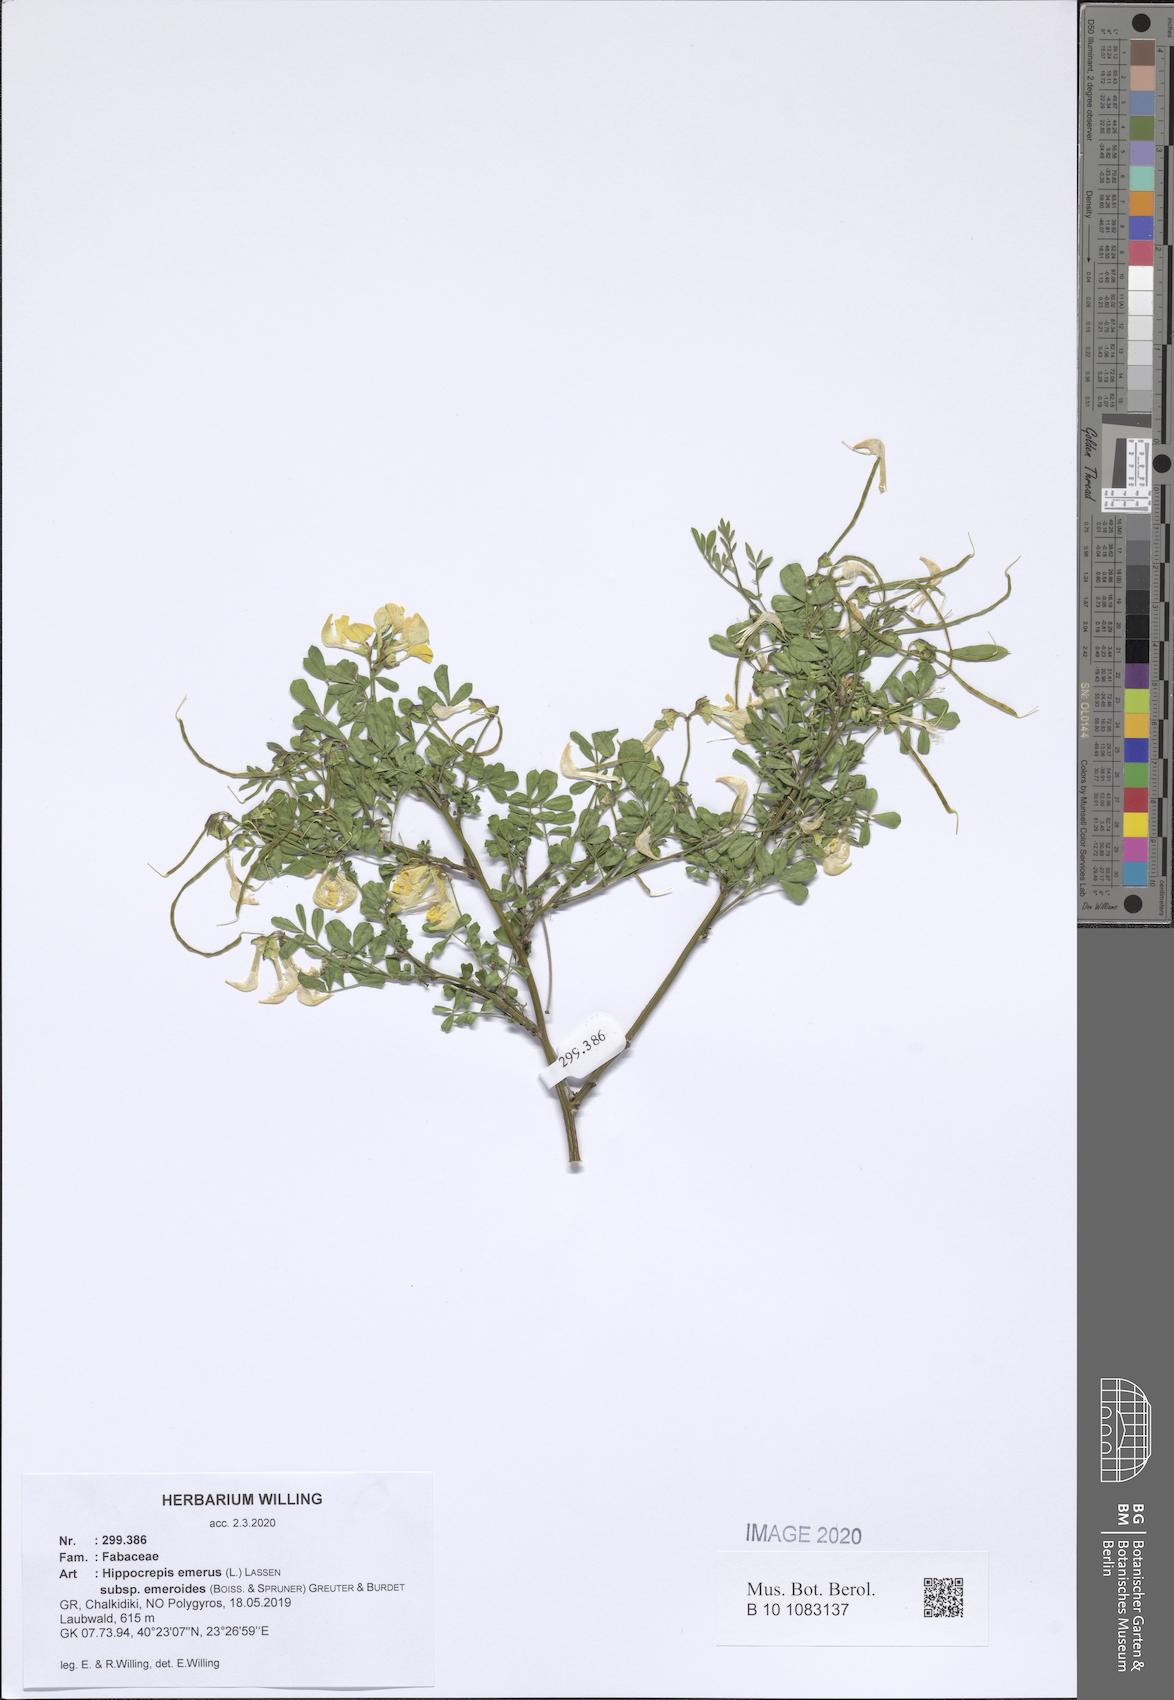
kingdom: Plantae
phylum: Tracheophyta
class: Magnoliopsida
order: Fabales
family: Fabaceae
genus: Hippocrepis
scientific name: Hippocrepis emerus
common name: Scorpion senna
